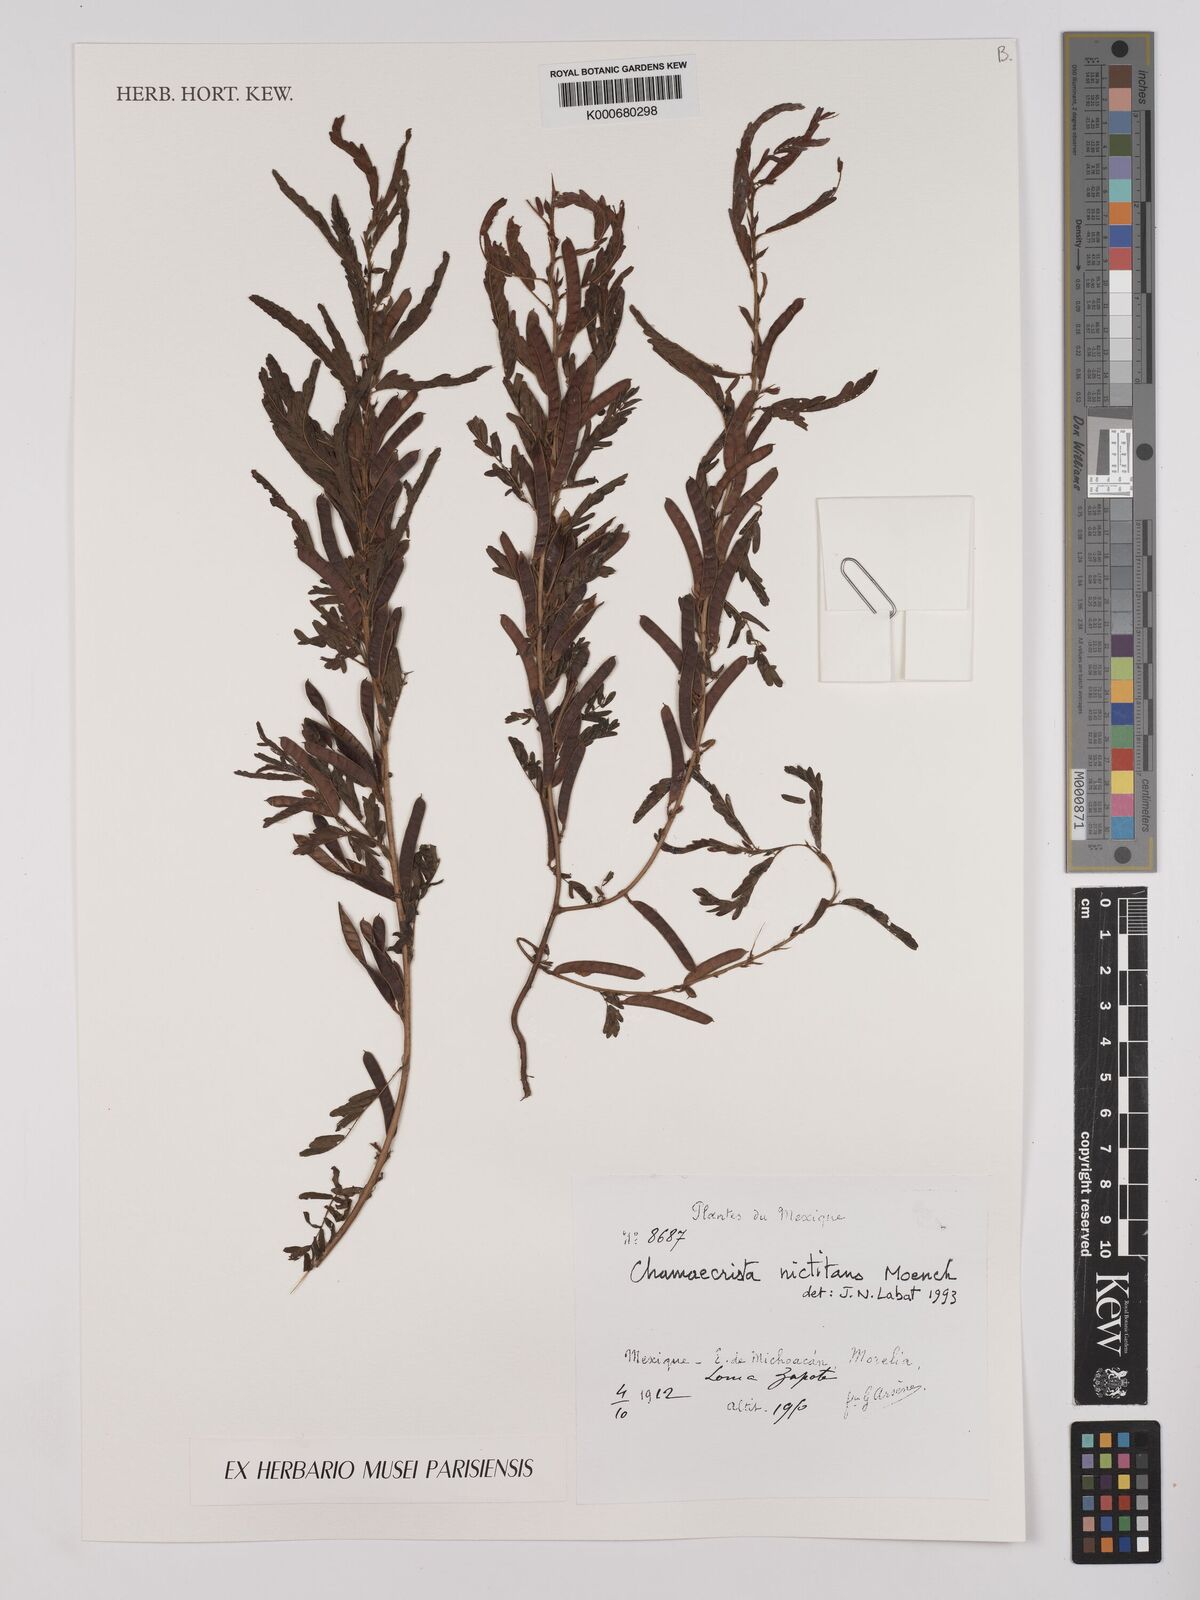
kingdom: Plantae
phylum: Tracheophyta
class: Magnoliopsida
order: Fabales
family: Fabaceae
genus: Chamaecrista
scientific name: Chamaecrista nictitans
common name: Sensitive cassia
